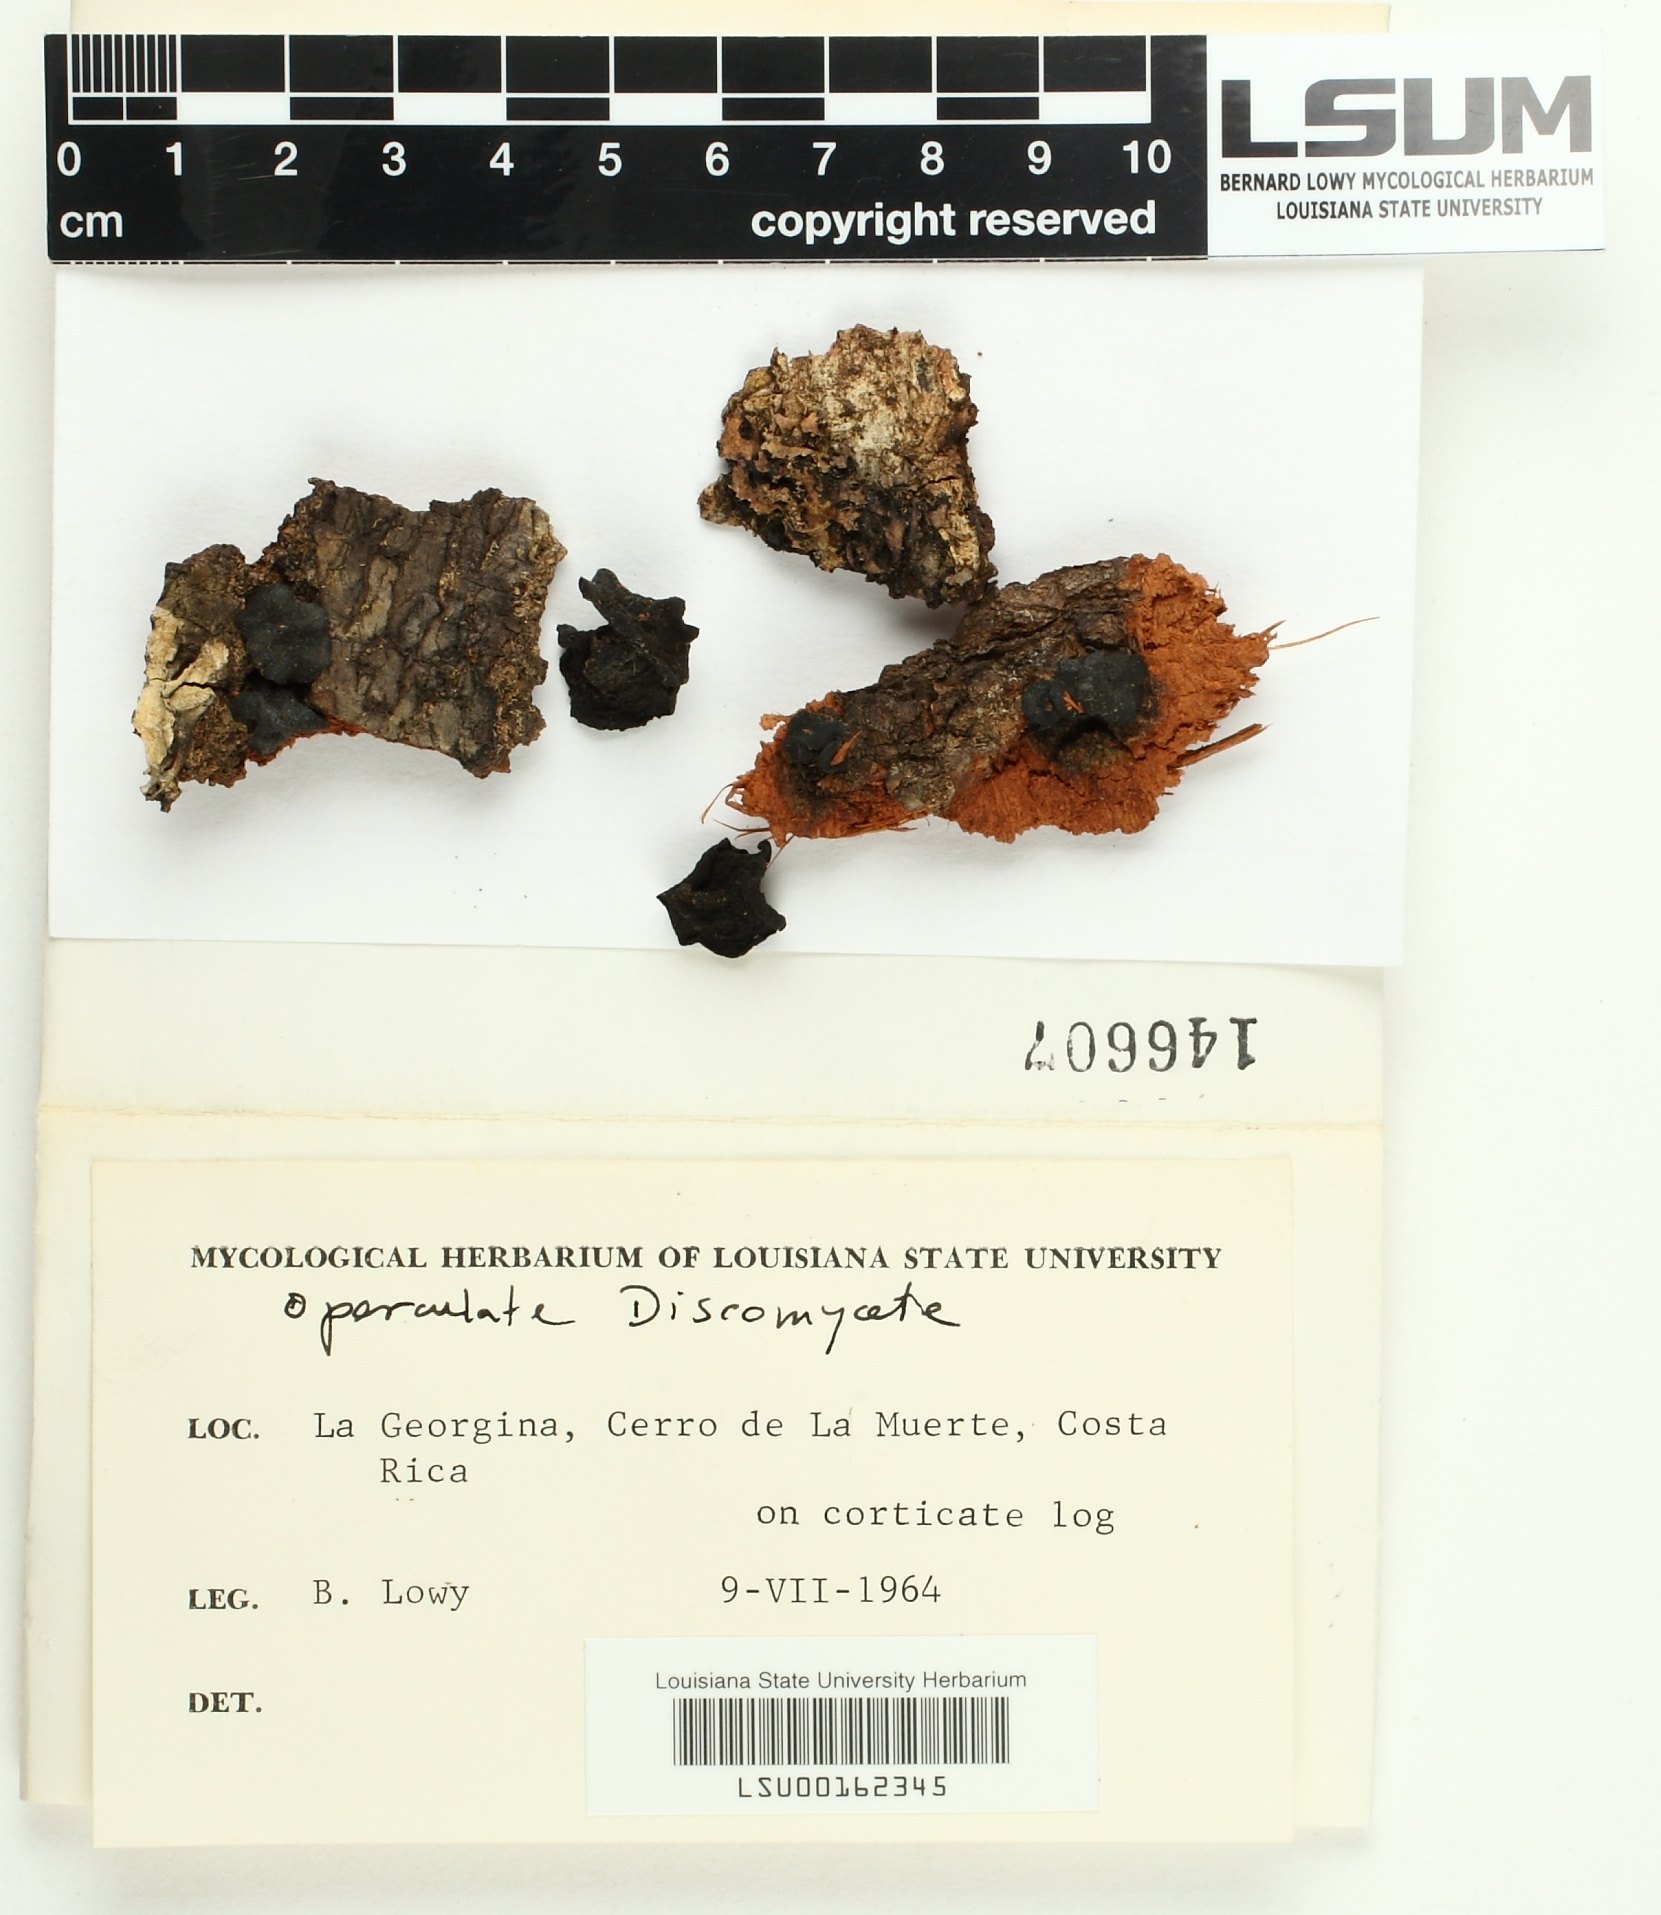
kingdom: Fungi
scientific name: Fungi
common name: Fungi
